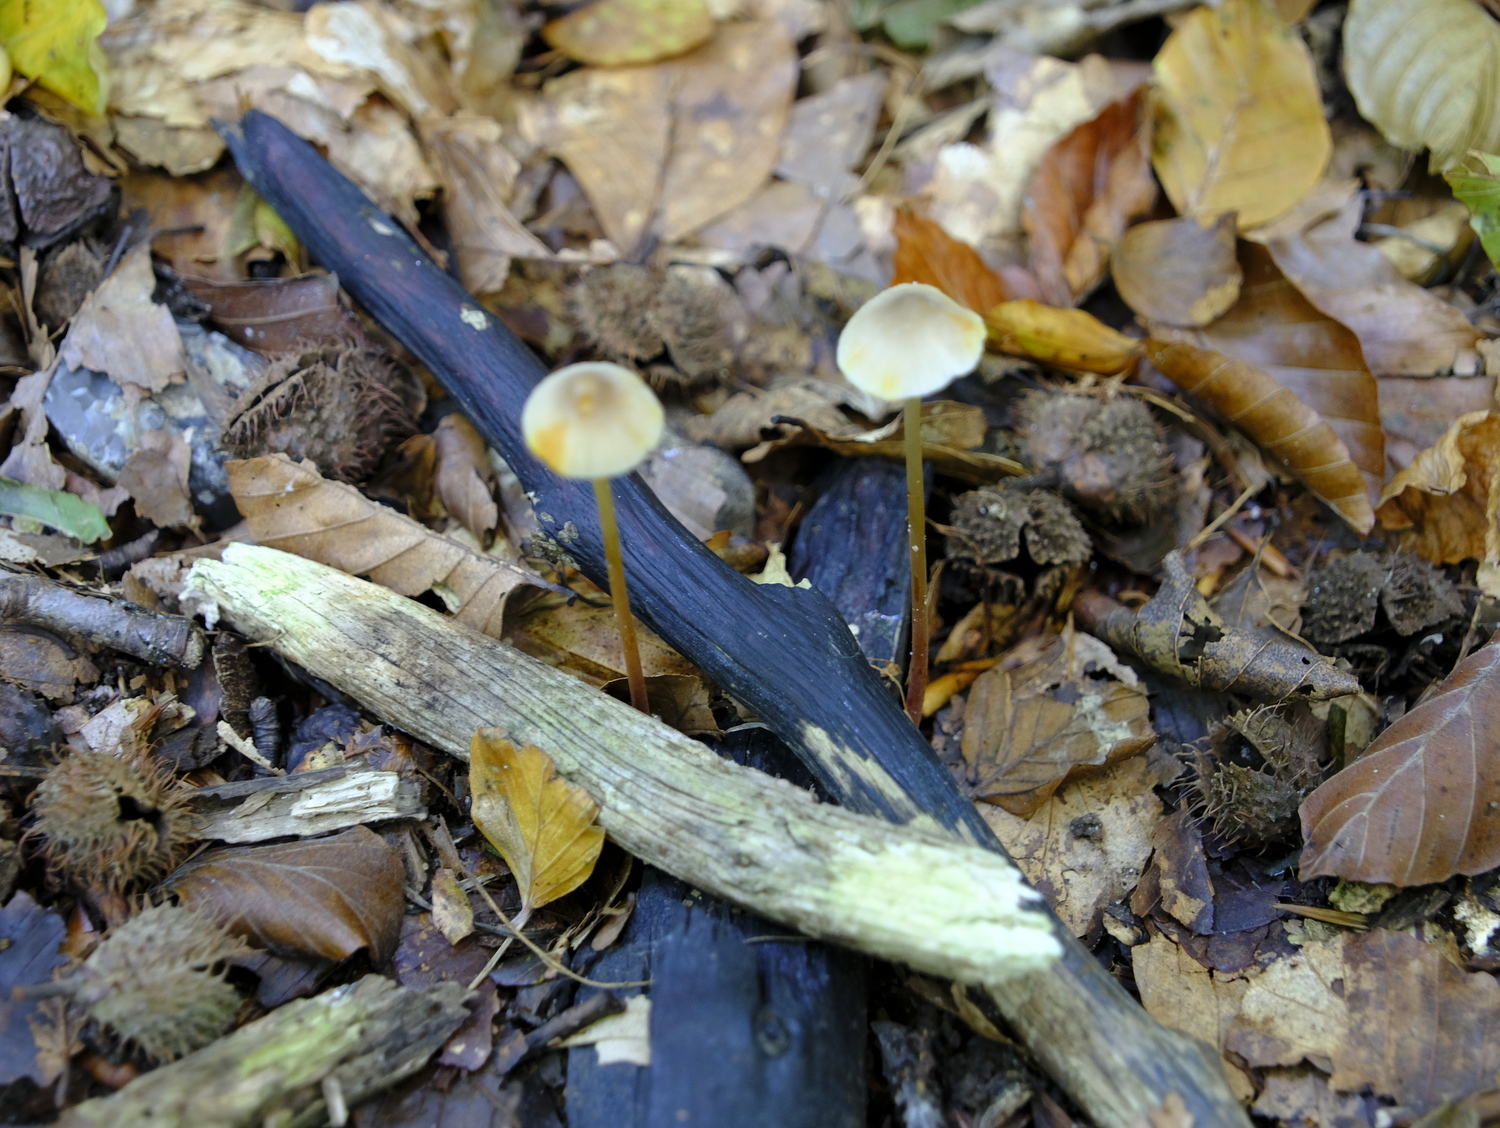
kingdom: Fungi
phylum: Basidiomycota
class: Agaricomycetes
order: Agaricales
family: Mycenaceae
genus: Mycena
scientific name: Mycena crocata
